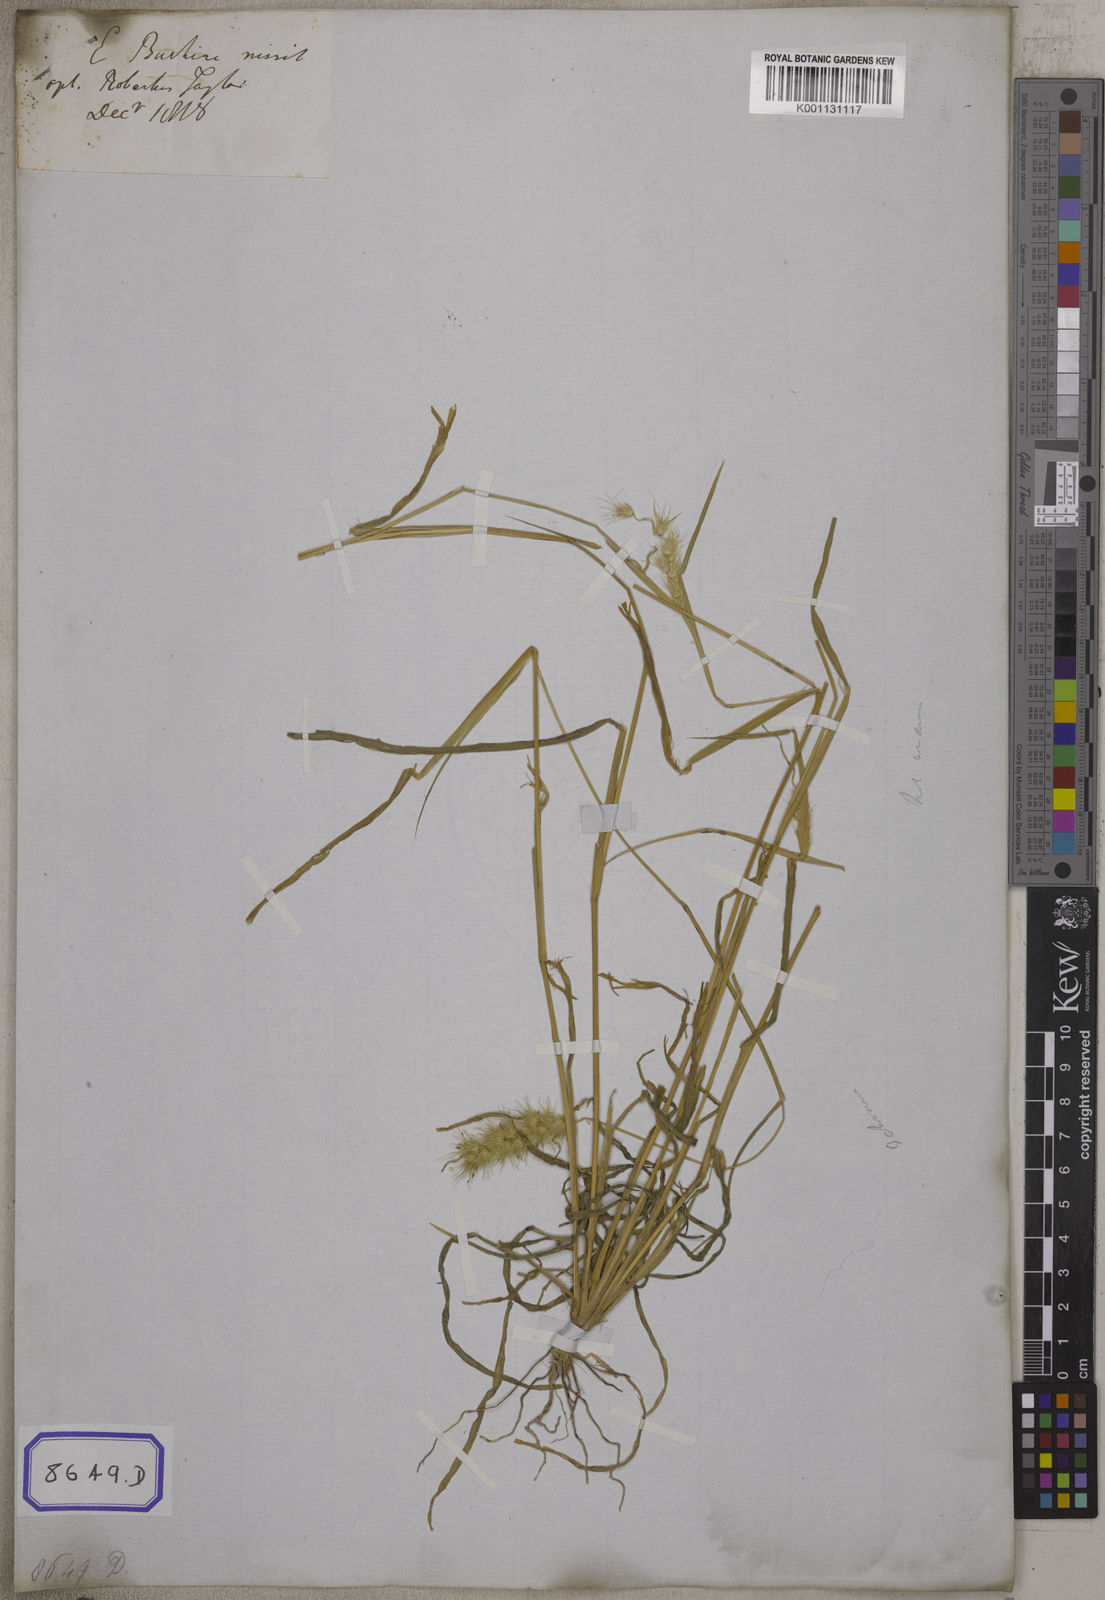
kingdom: Plantae
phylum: Tracheophyta
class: Liliopsida
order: Poales
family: Poaceae
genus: Cenchrus
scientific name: Cenchrus ciliaris
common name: Buffelgrass
